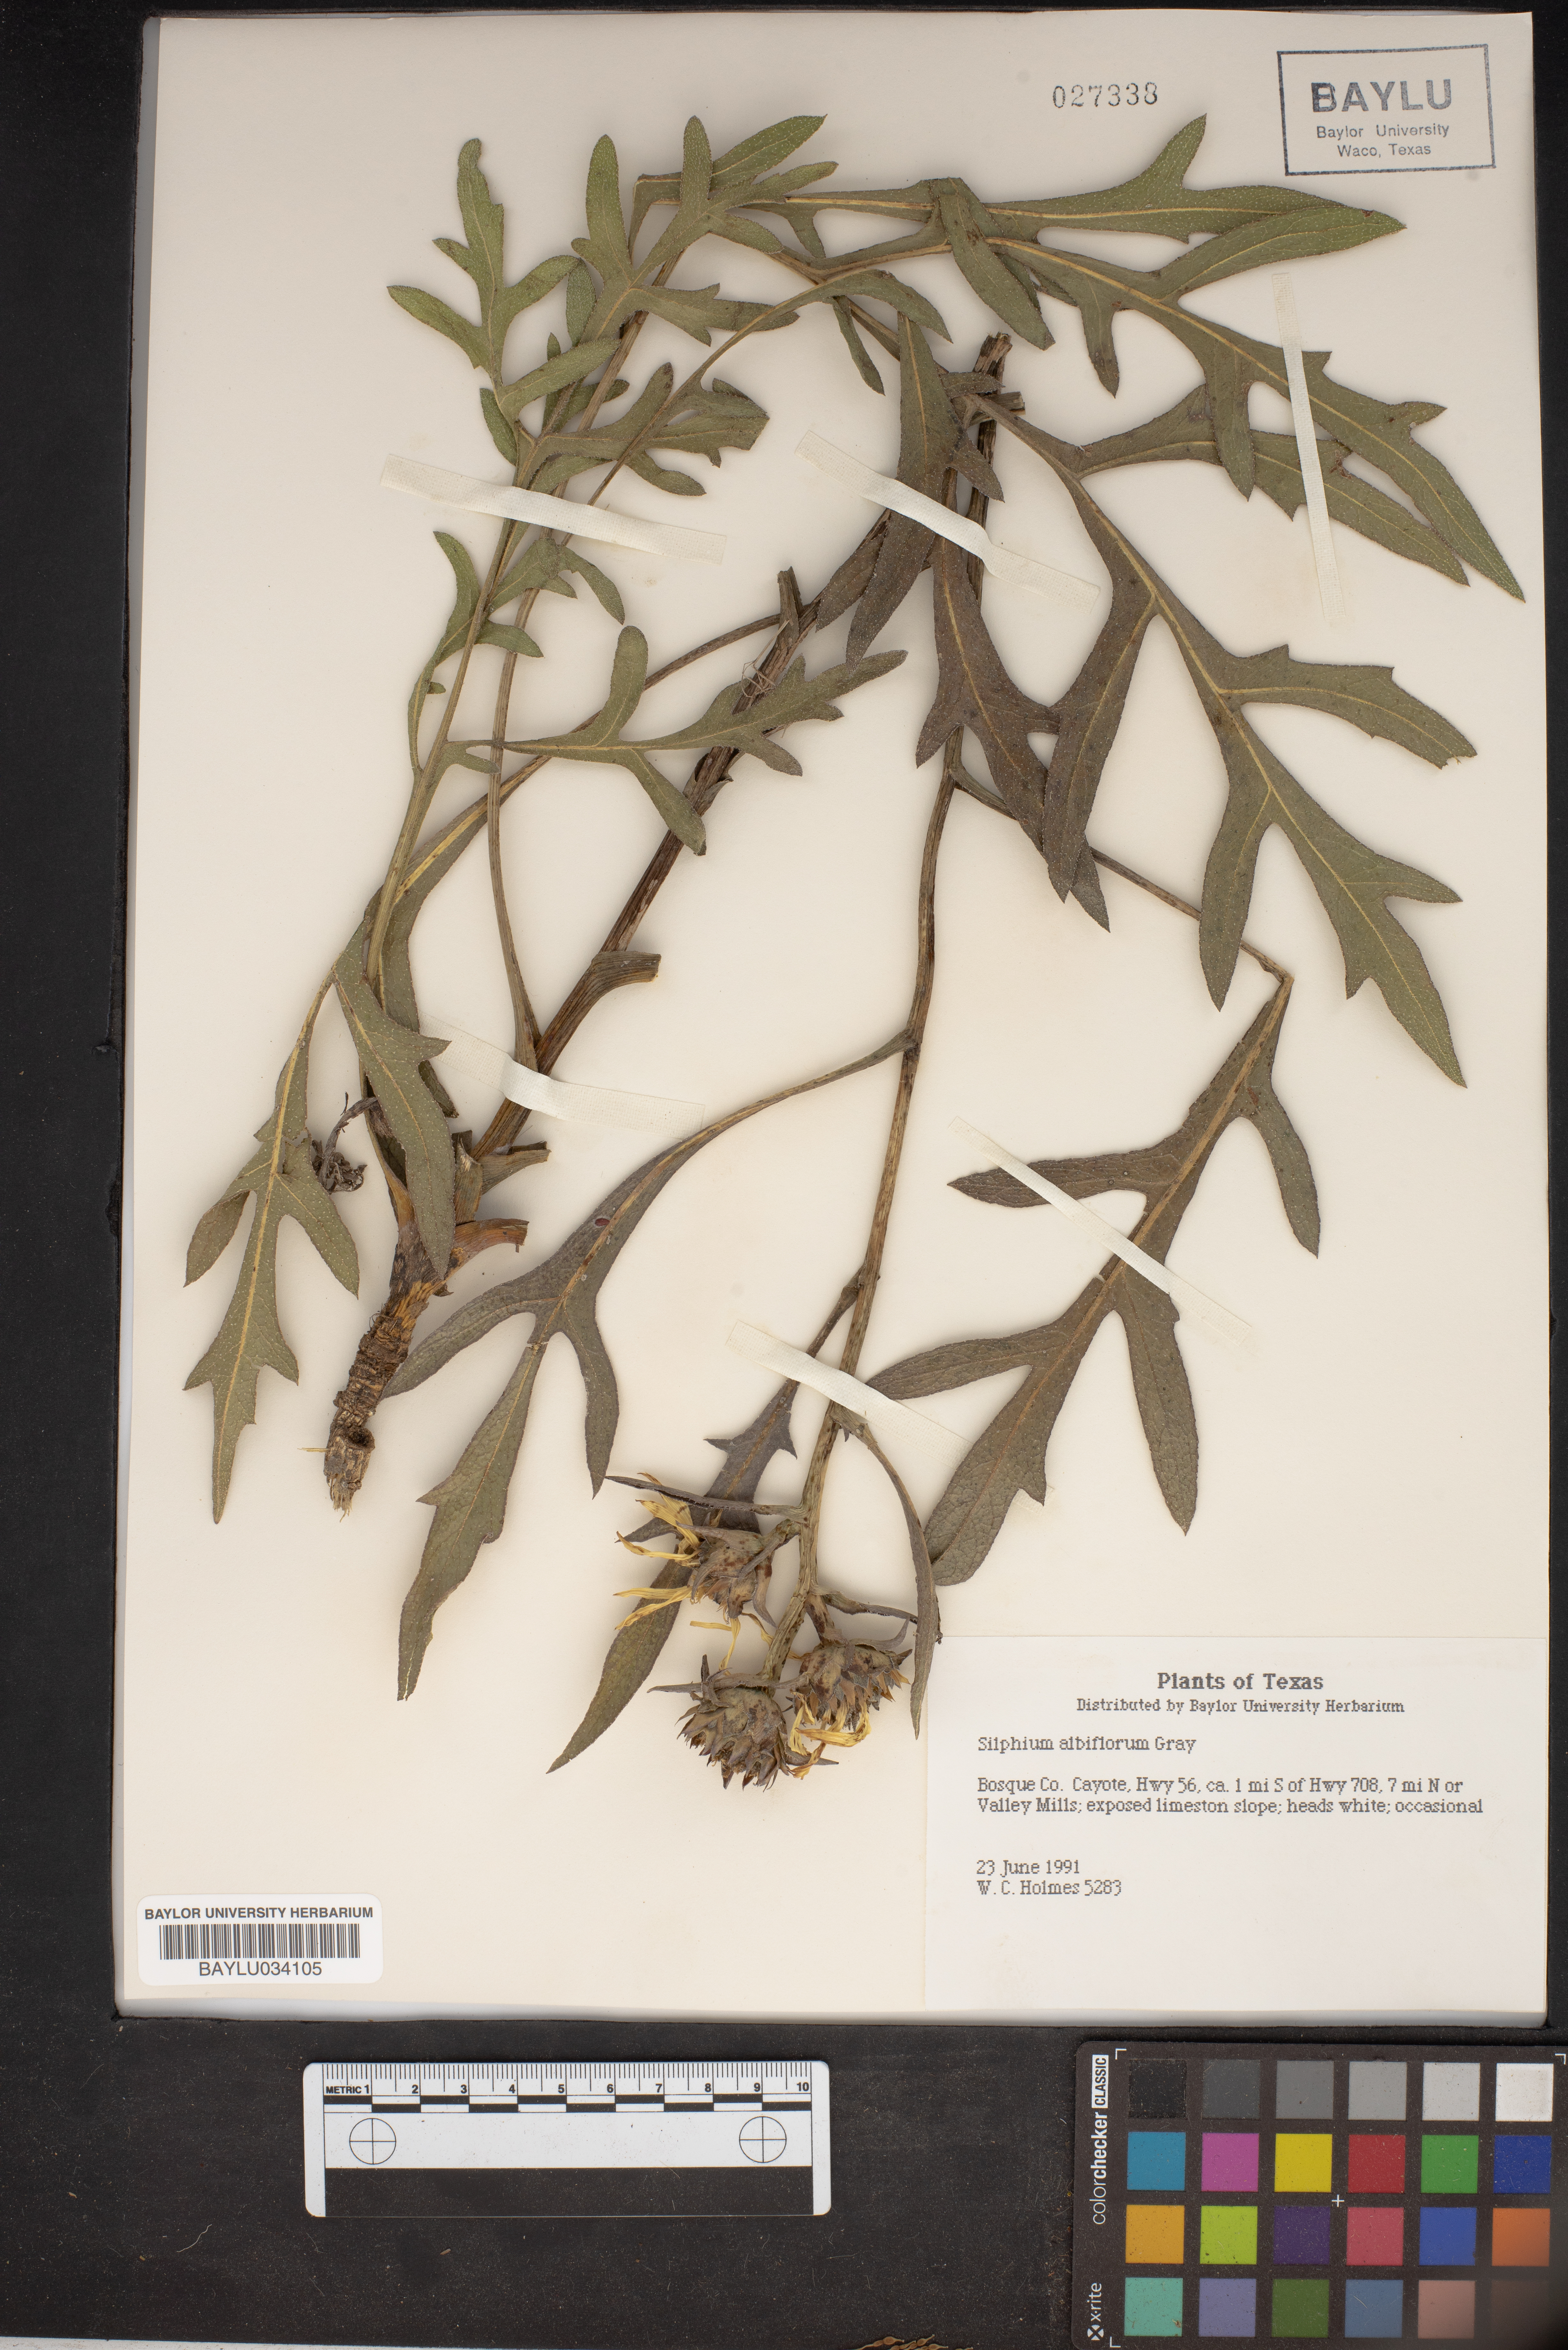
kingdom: Plantae
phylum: Tracheophyta
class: Magnoliopsida
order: Asterales
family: Asteraceae
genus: Silphium
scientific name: Silphium albiflorum
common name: White rosinweed
